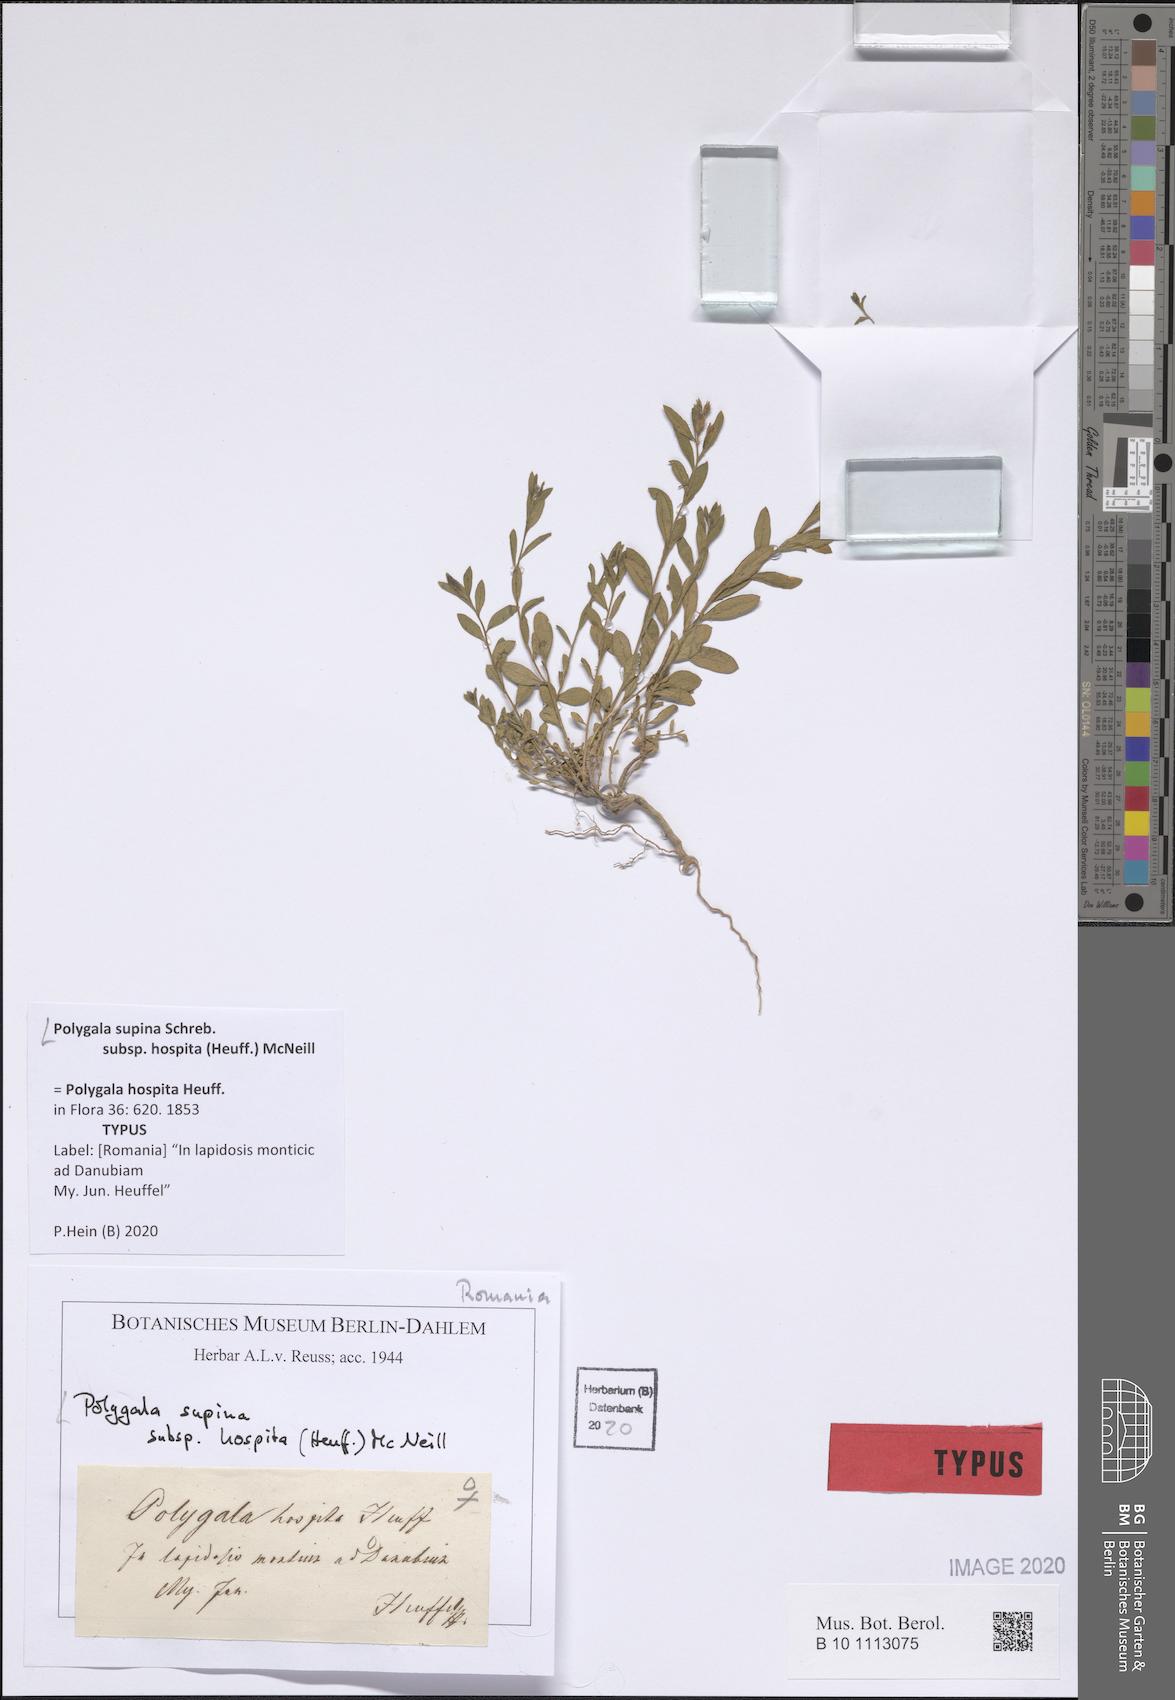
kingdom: Plantae
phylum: Tracheophyta
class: Magnoliopsida
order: Fabales
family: Polygalaceae
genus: Polygala
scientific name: Polygala supina
